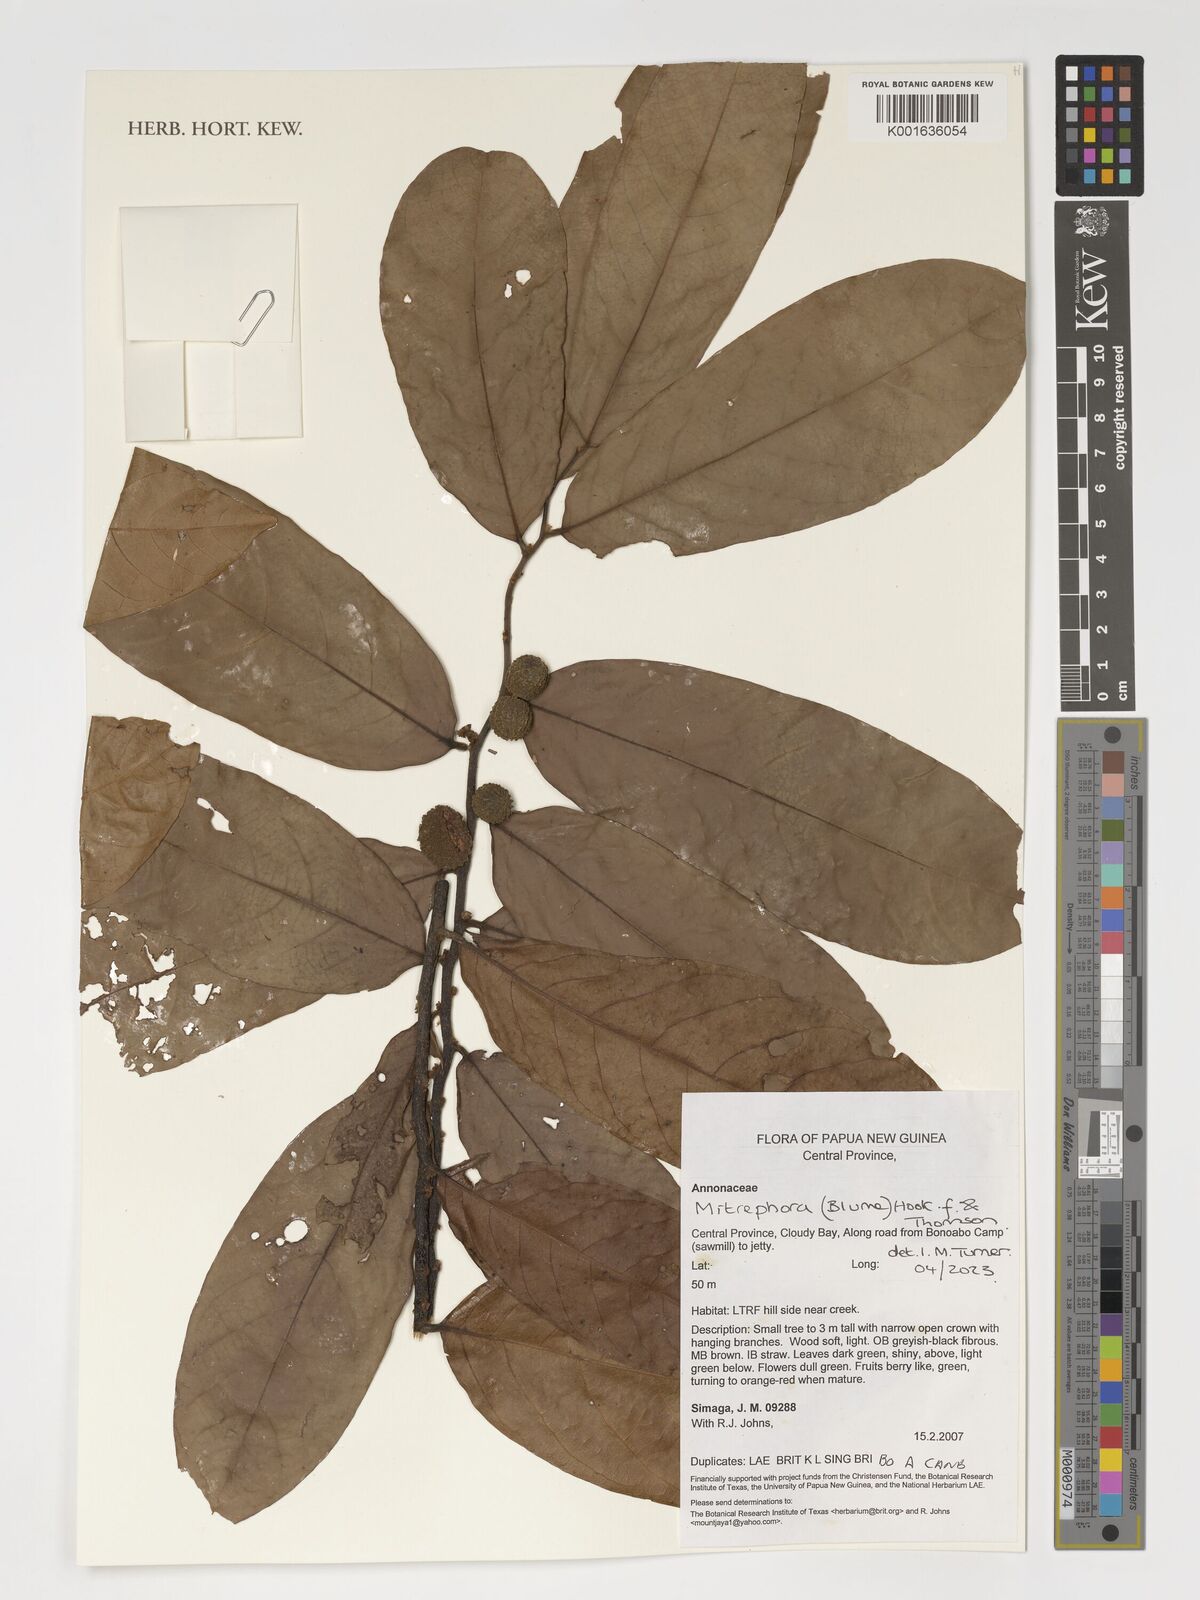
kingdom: Plantae
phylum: Tracheophyta
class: Magnoliopsida
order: Magnoliales
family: Annonaceae
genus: Mitrephora
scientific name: Mitrephora
